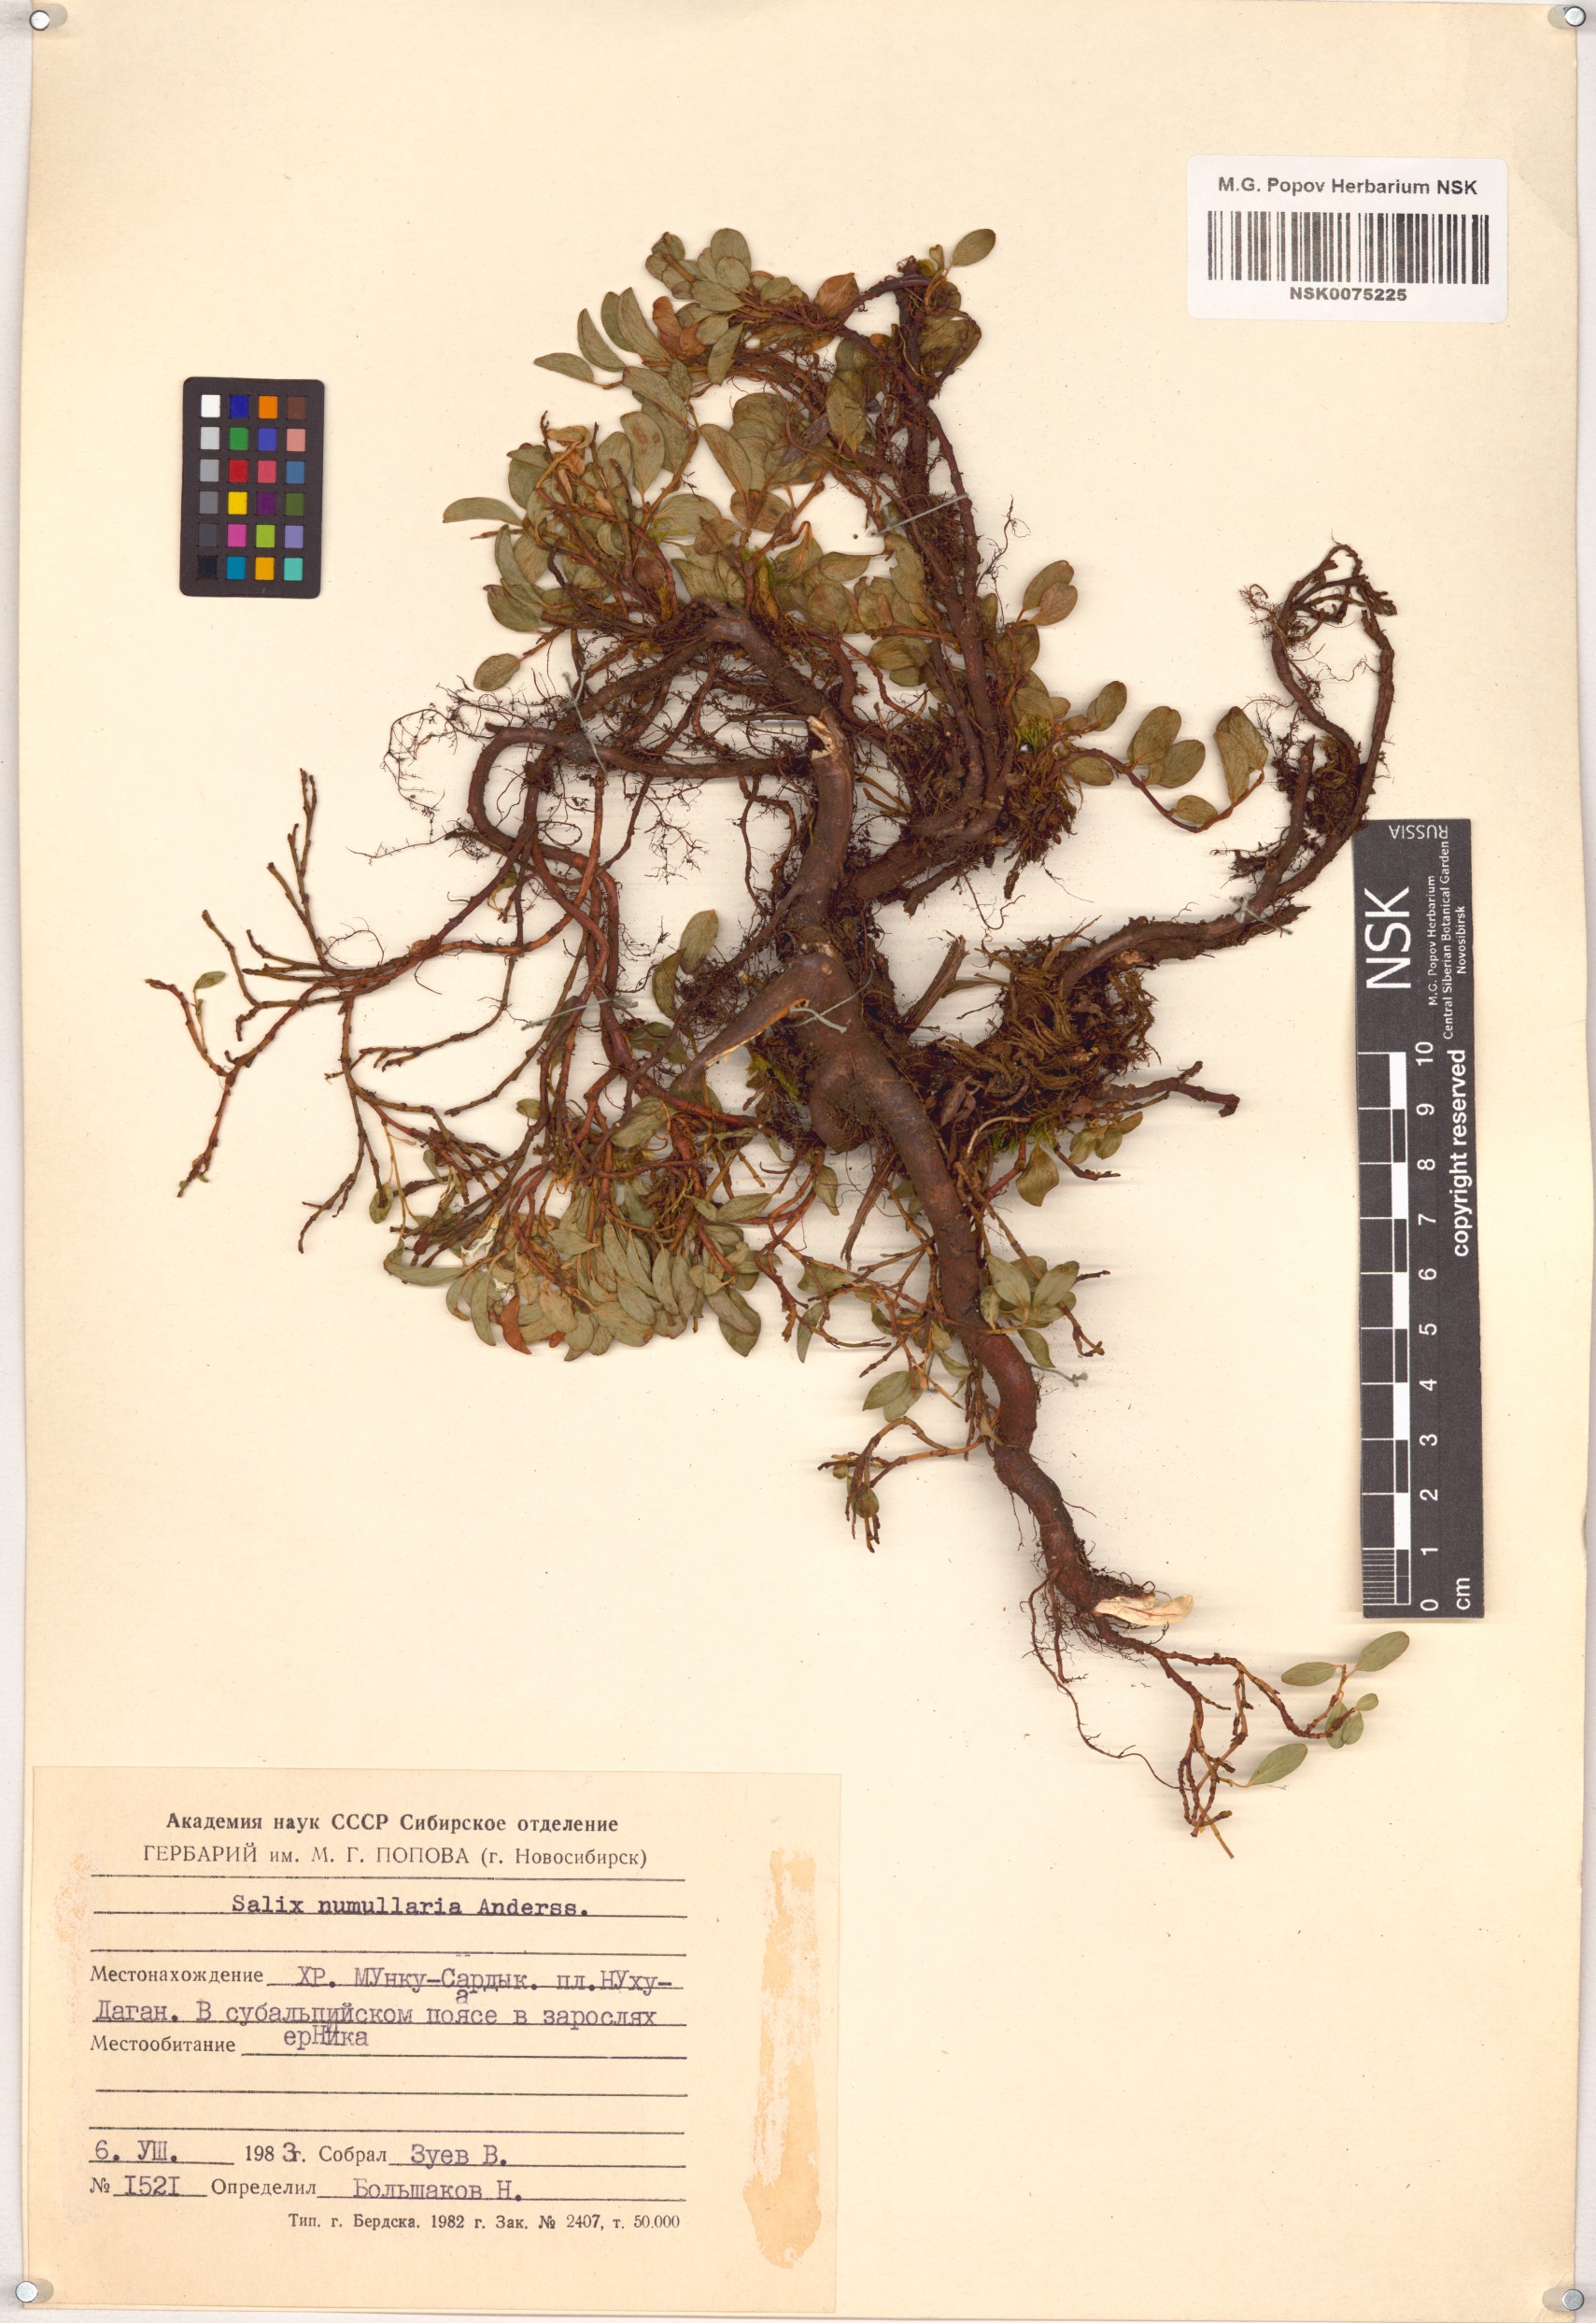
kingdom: Plantae
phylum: Tracheophyta
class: Magnoliopsida
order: Malpighiales
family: Salicaceae
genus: Salix
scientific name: Salix nummularia
